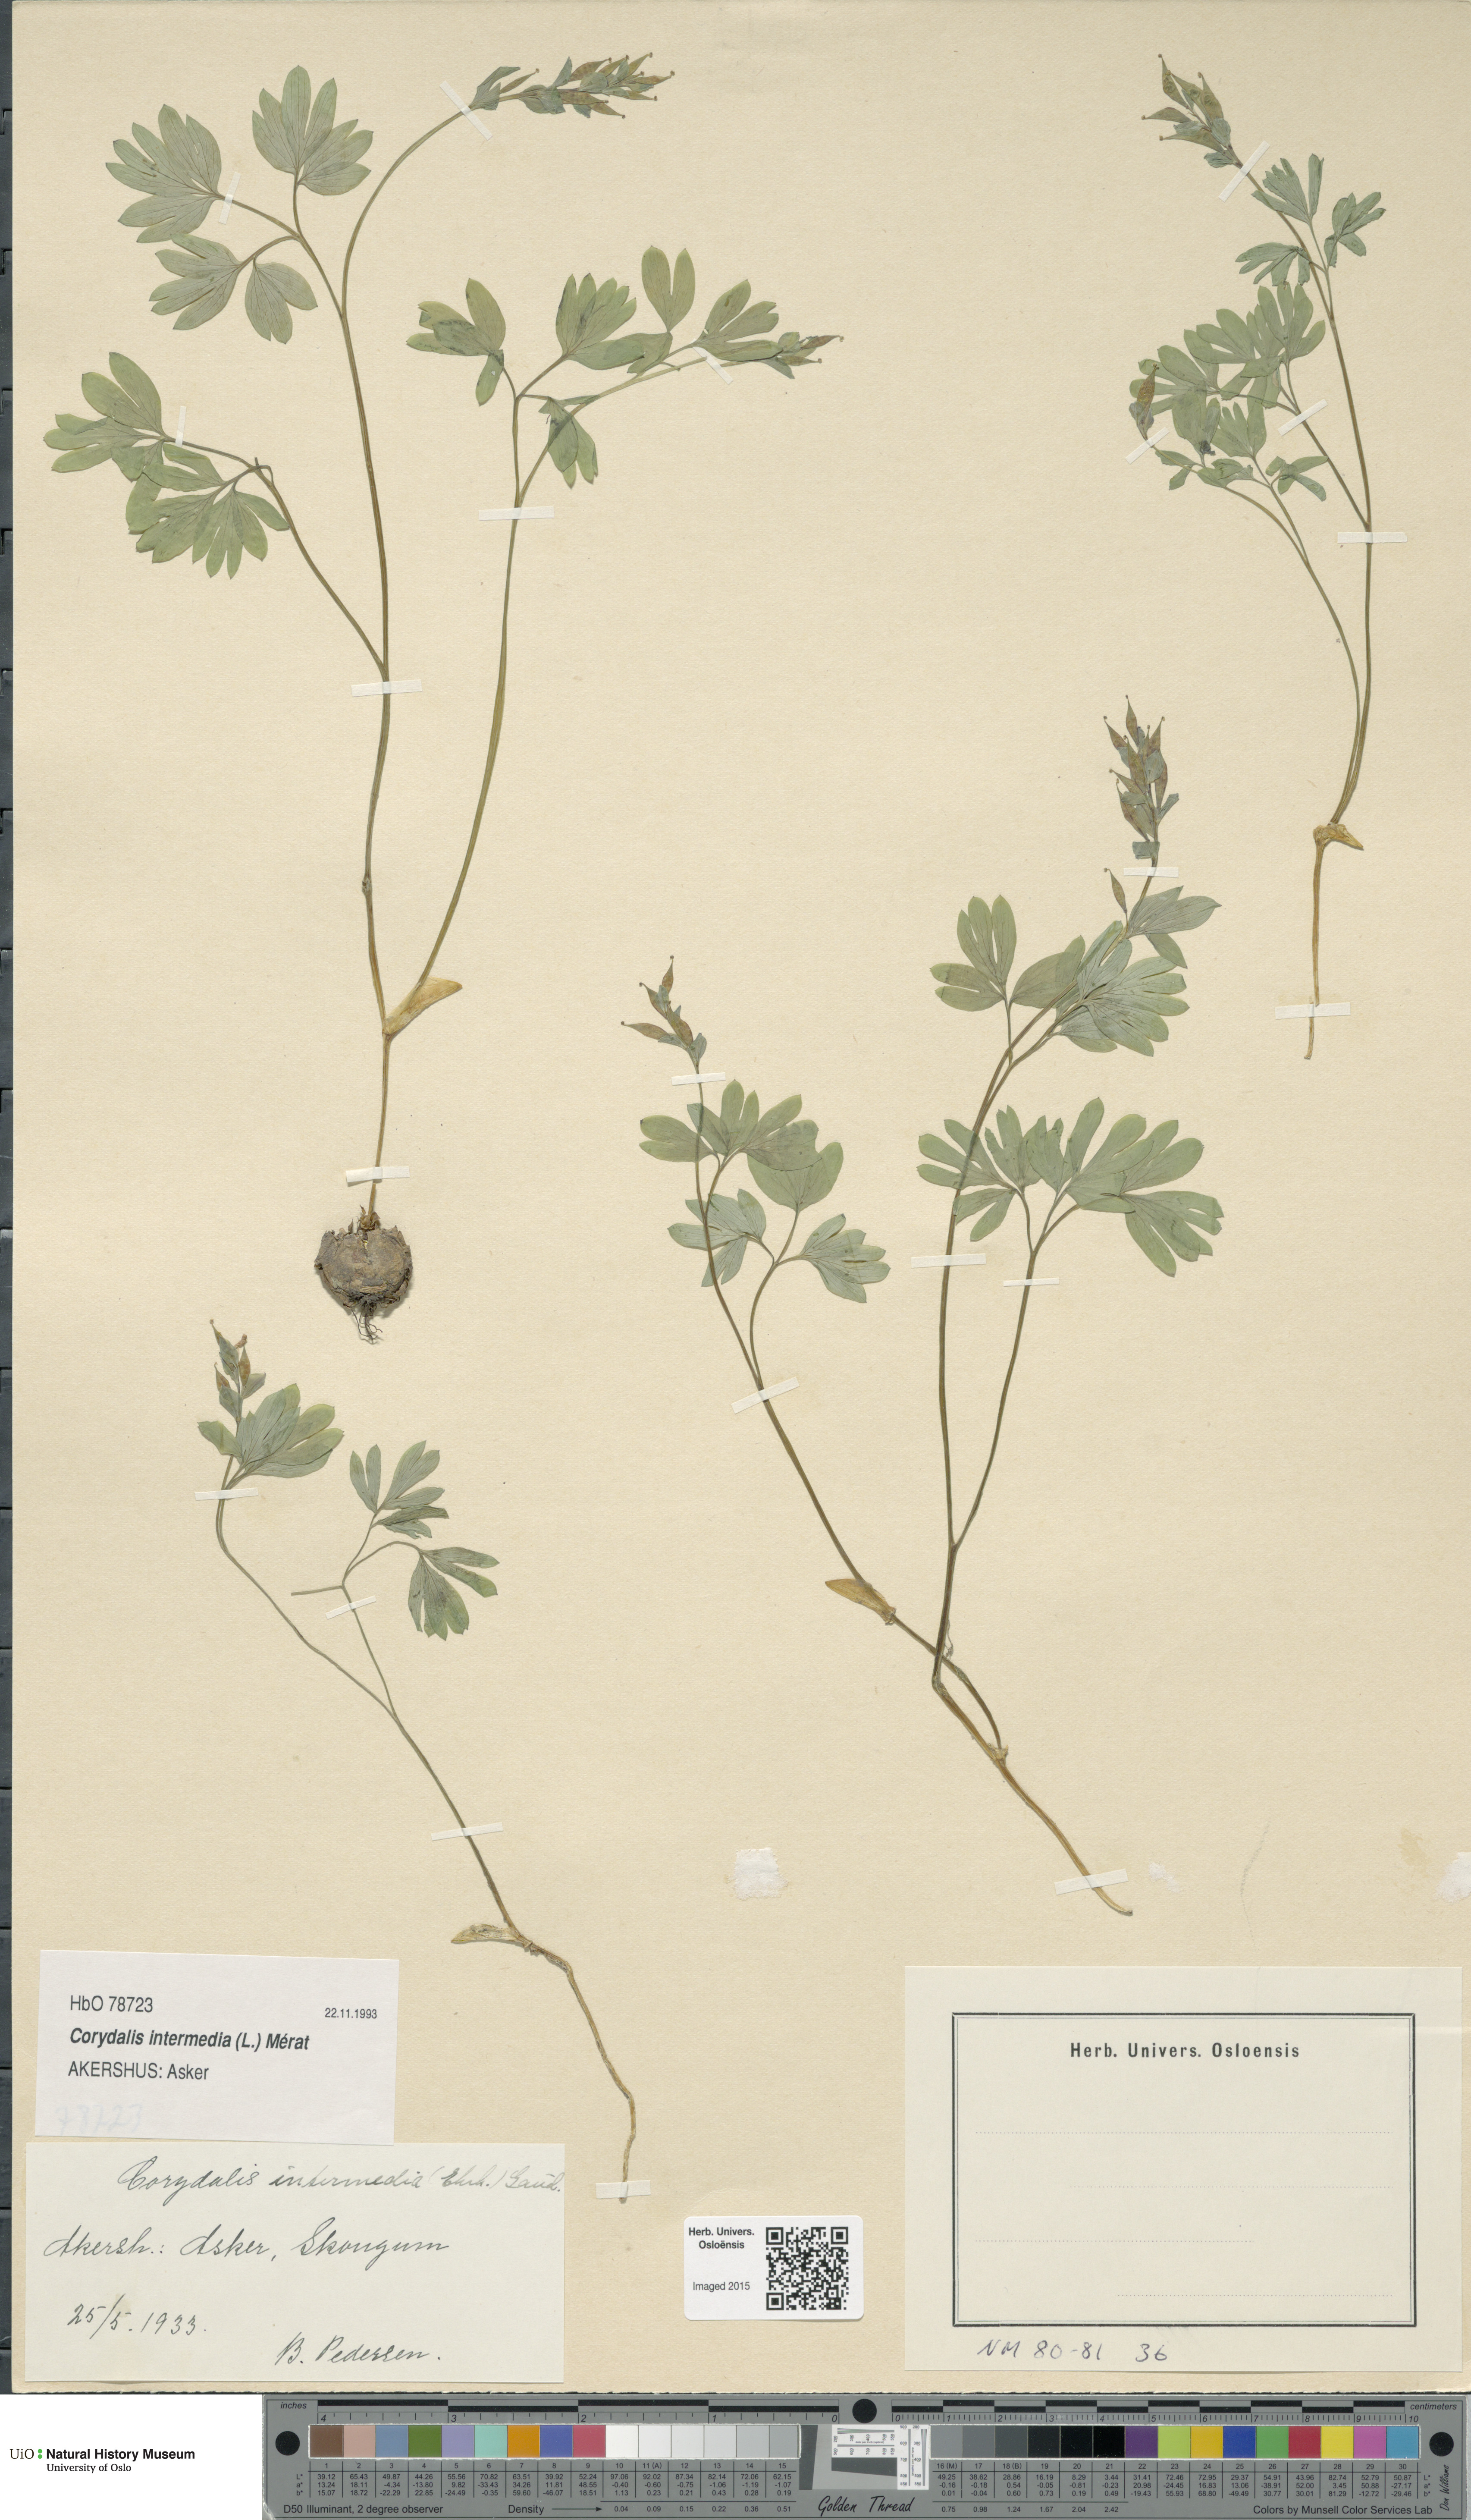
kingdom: Plantae
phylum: Tracheophyta
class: Magnoliopsida
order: Ranunculales
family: Papaveraceae
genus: Corydalis
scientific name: Corydalis intermedia
